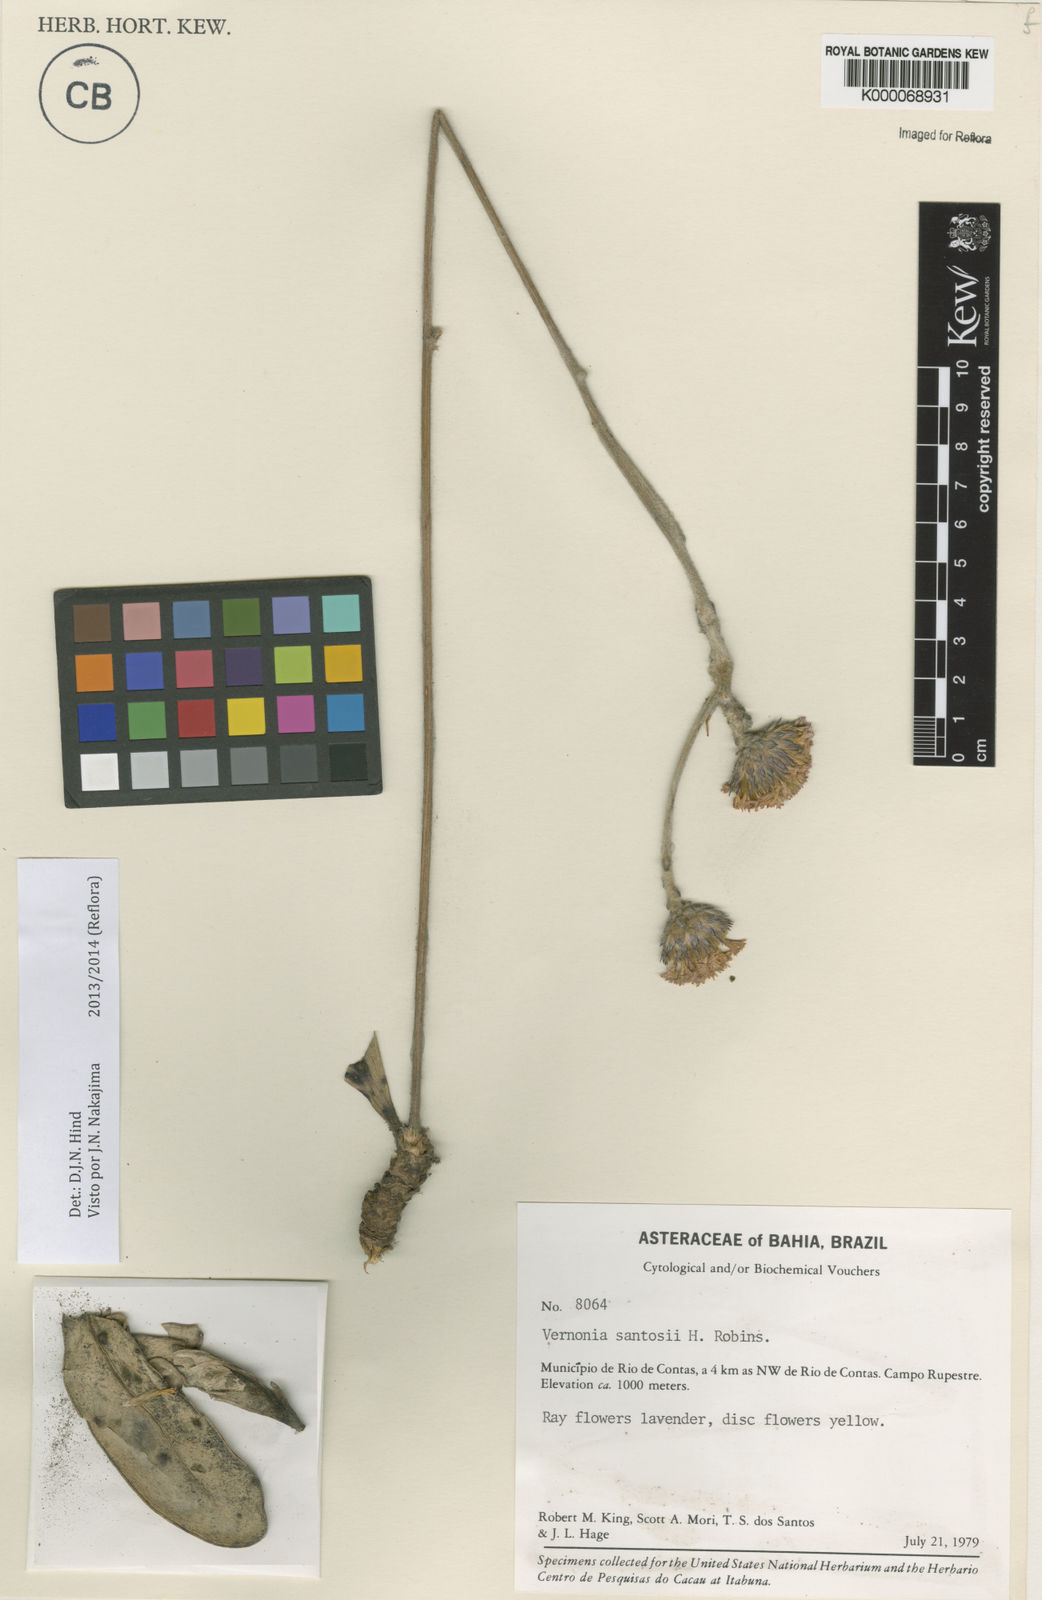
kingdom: Plantae
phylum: Tracheophyta
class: Magnoliopsida
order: Asterales
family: Asteraceae
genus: Lessingianthus
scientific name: Lessingianthus santosii
